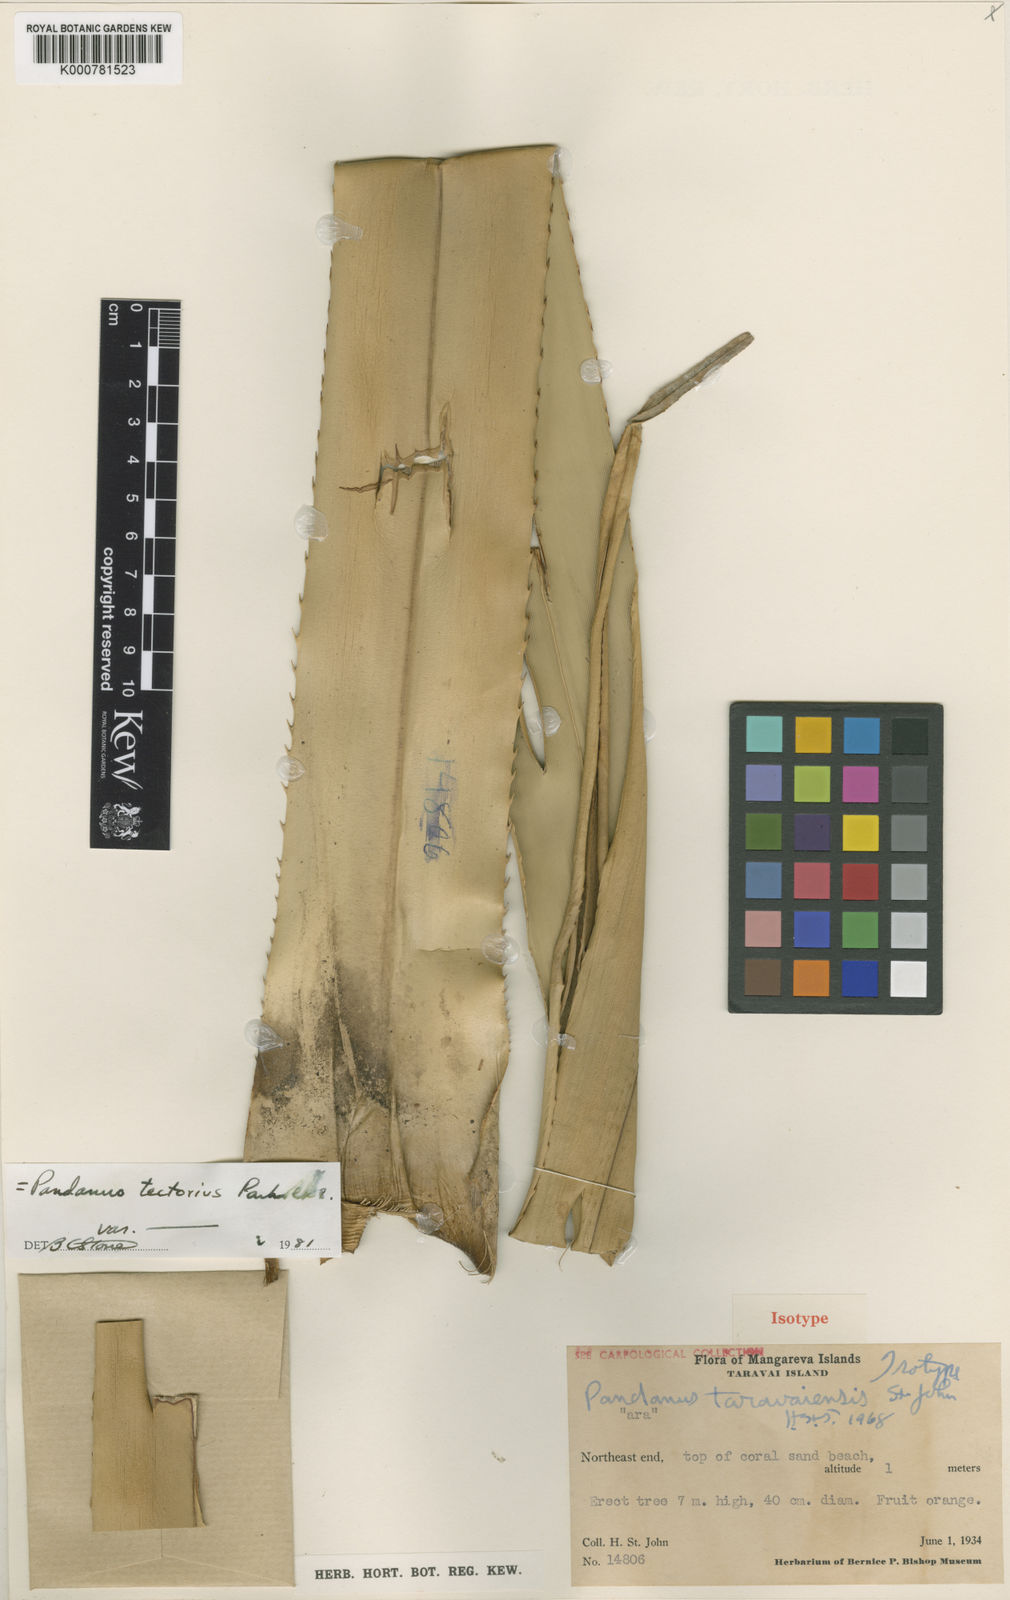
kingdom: Plantae
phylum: Tracheophyta
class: Liliopsida
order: Pandanales
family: Pandanaceae
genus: Pandanus
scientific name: Pandanus tectorius
